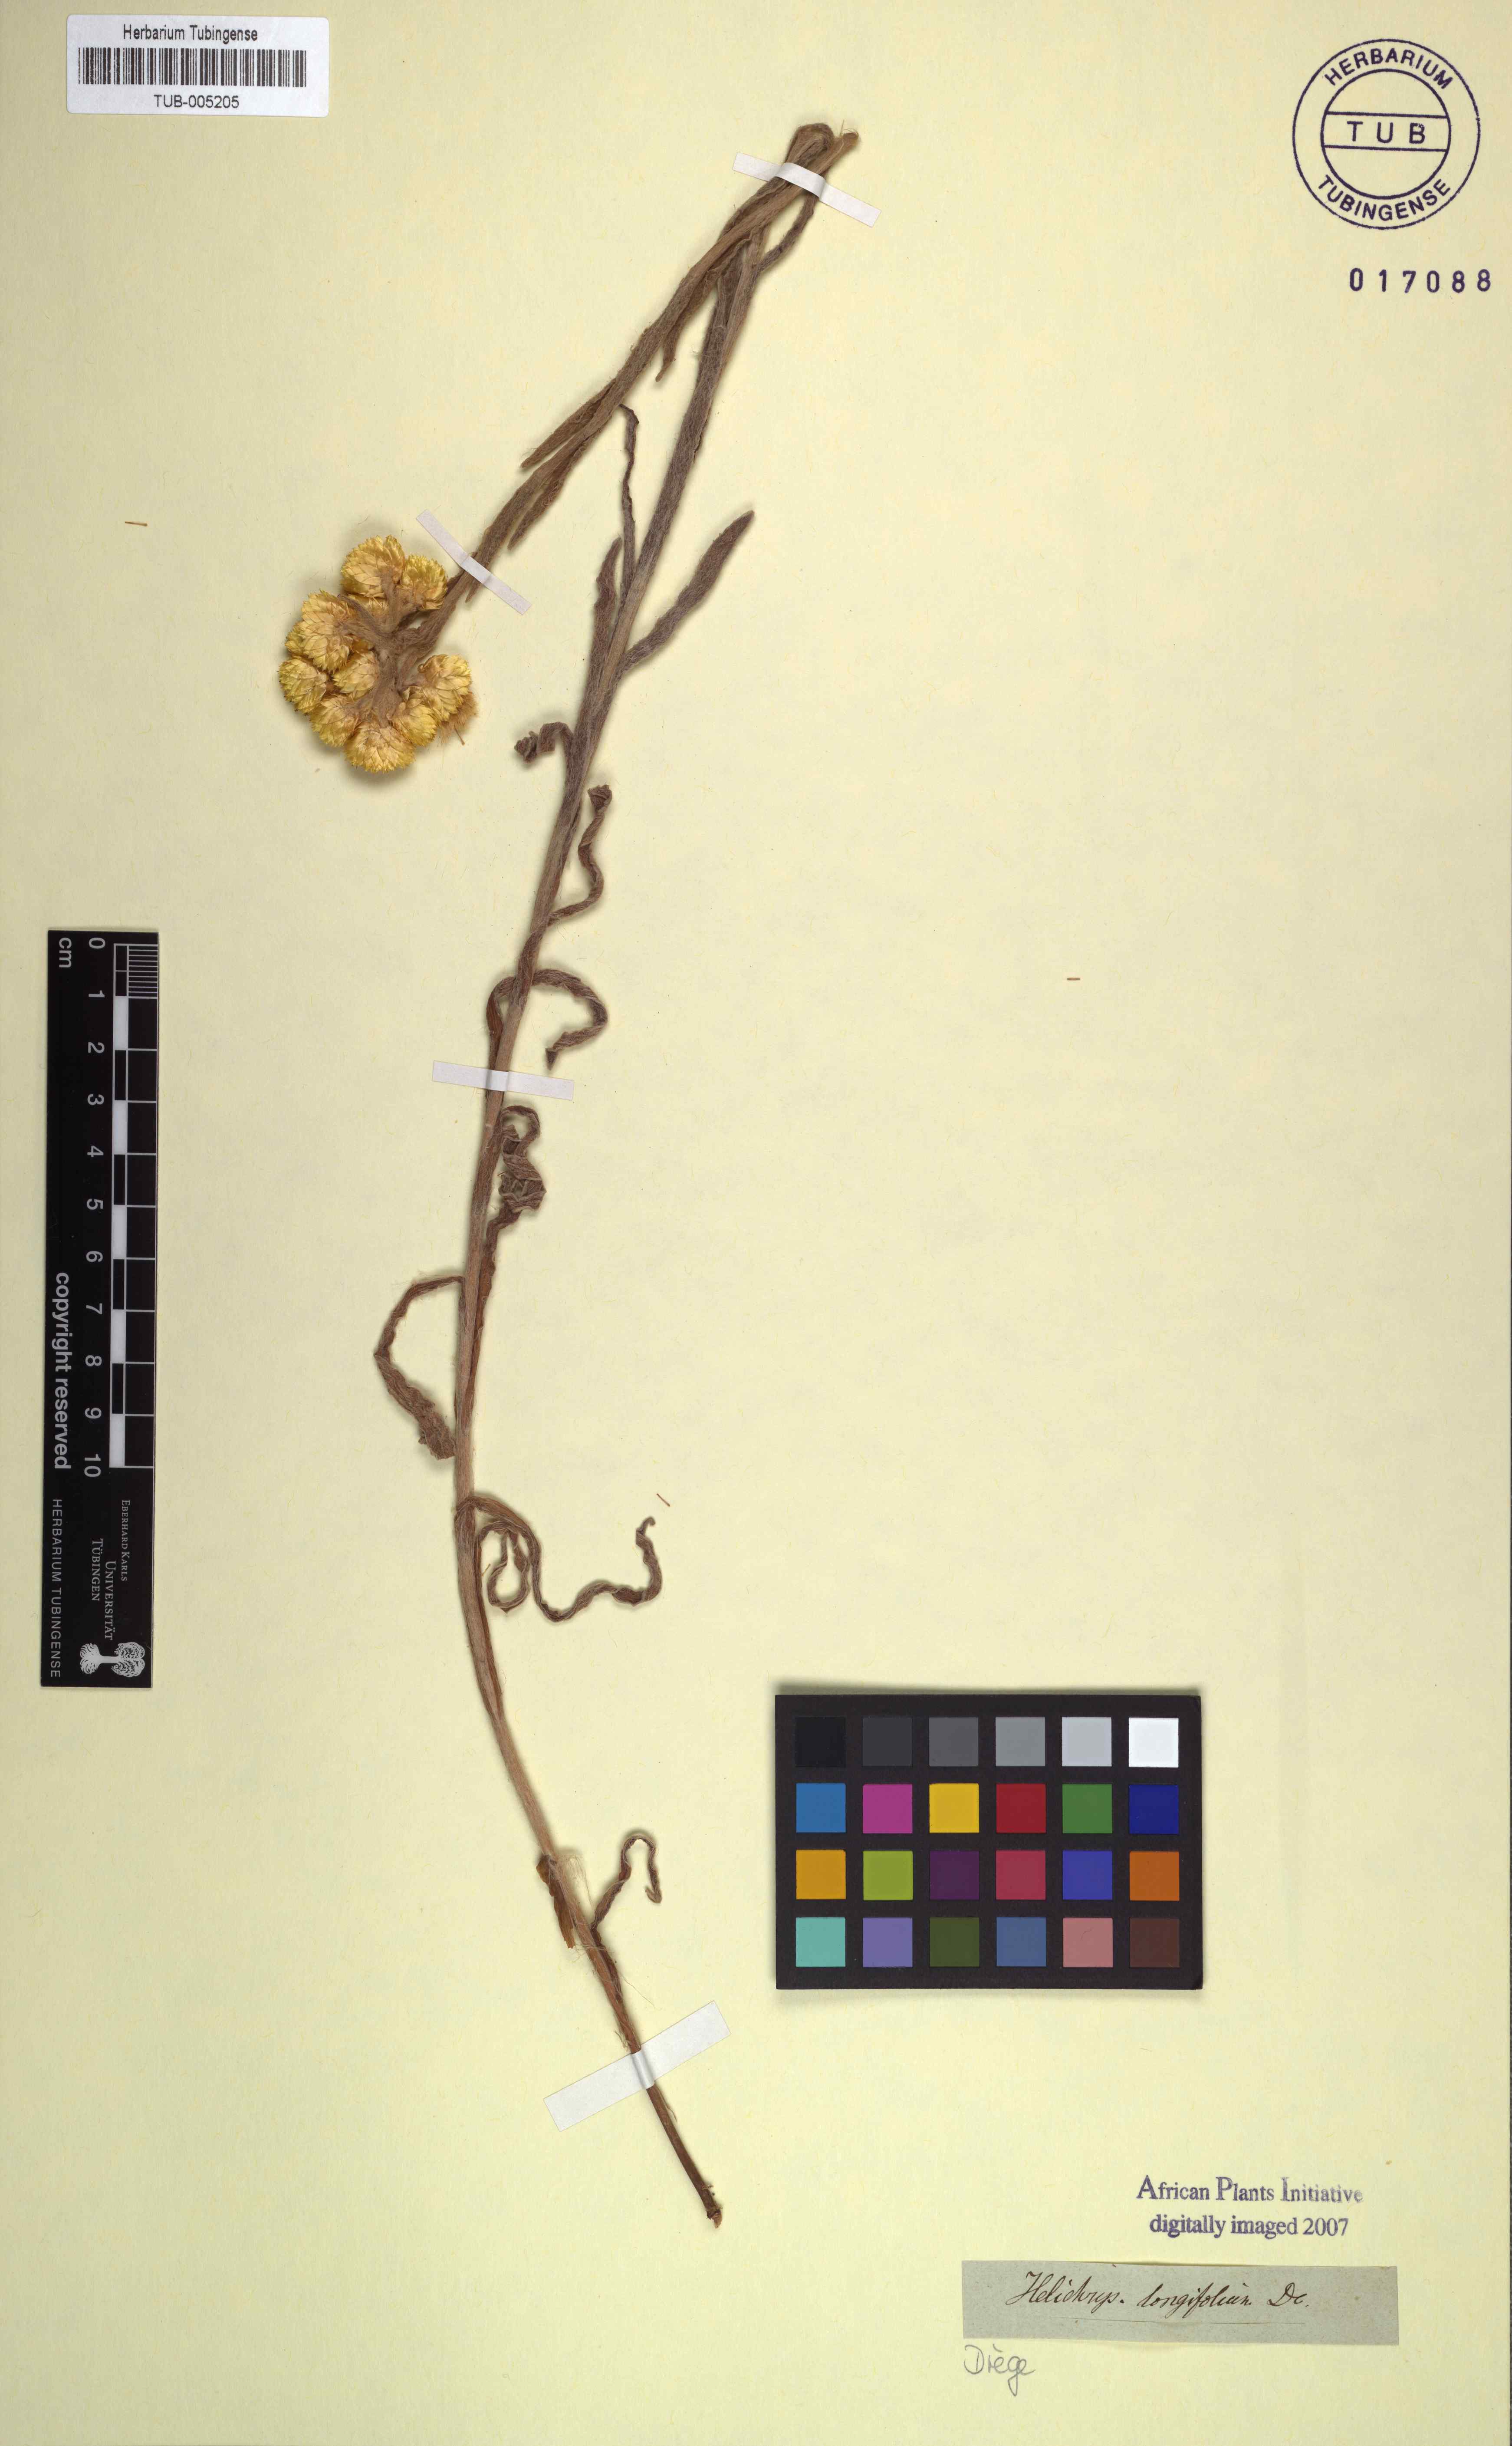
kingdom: Plantae
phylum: Tracheophyta
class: Magnoliopsida
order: Asterales
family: Asteraceae
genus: Helichrysum
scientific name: Helichrysum longifolium
